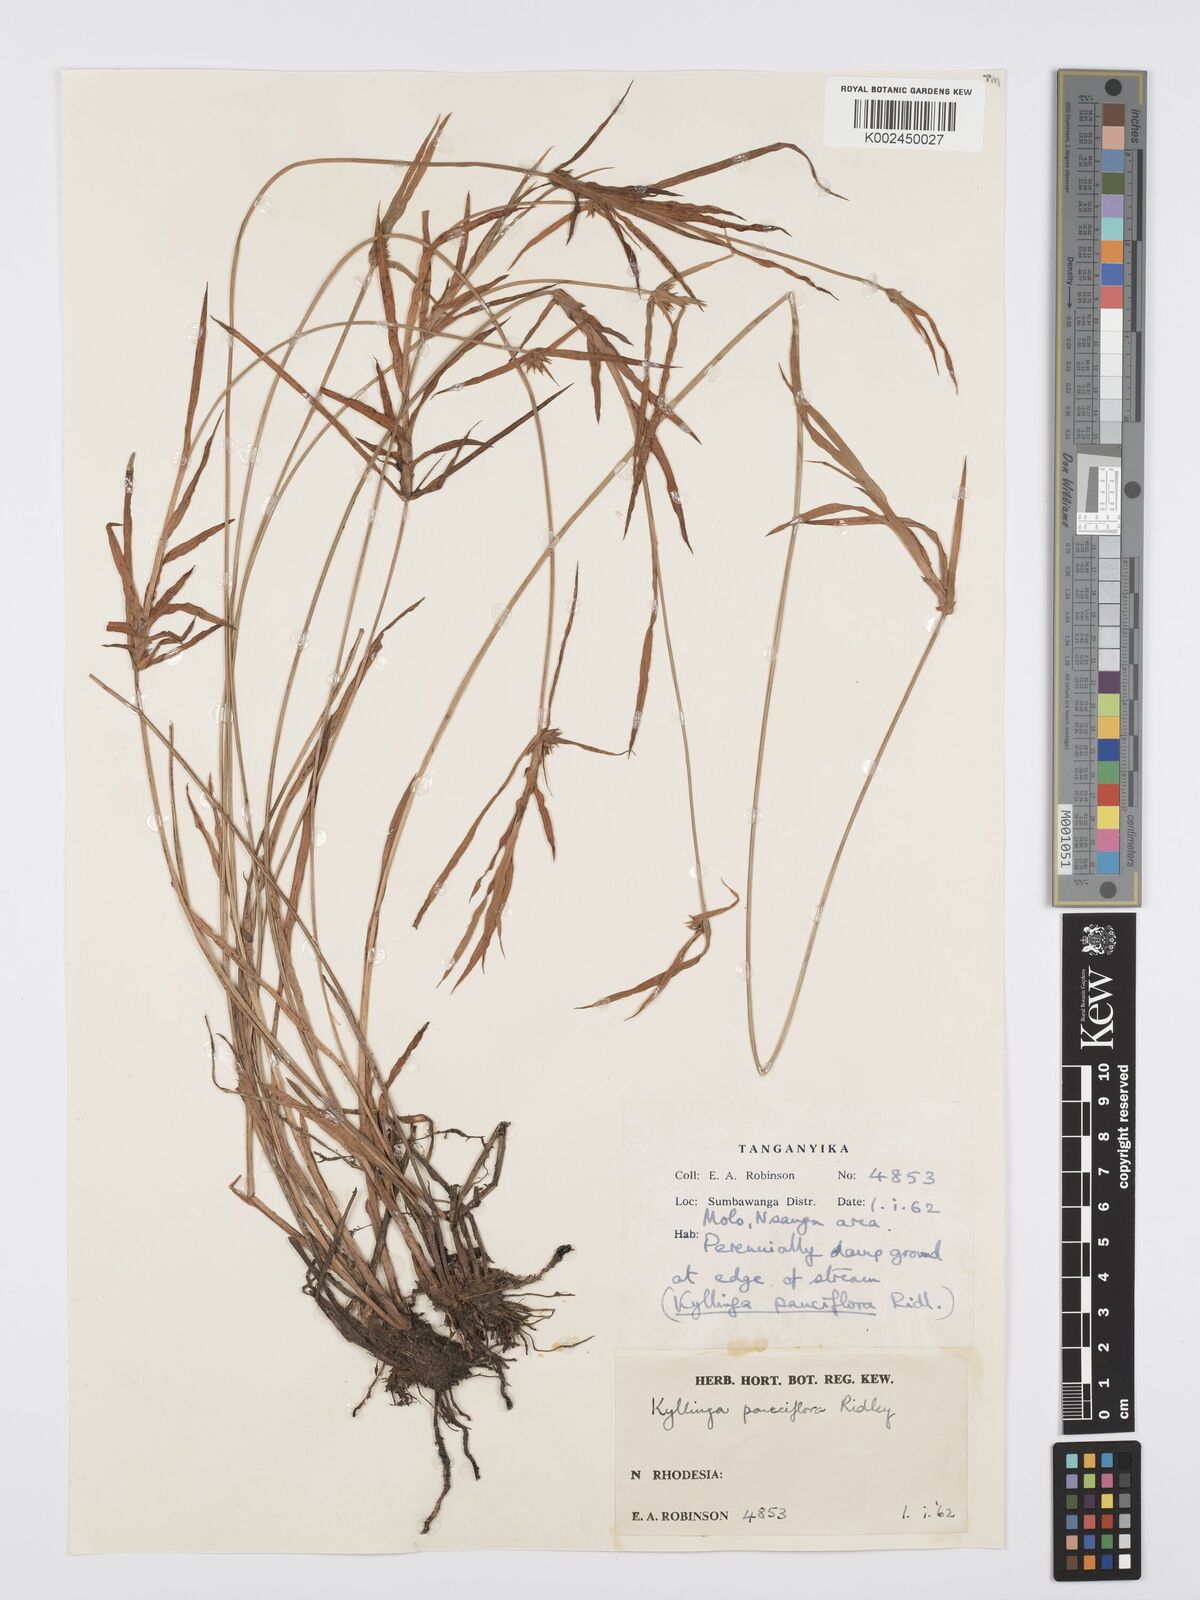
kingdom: Plantae
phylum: Tracheophyta
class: Liliopsida
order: Poales
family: Cyperaceae
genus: Cyperus
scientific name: Cyperus
